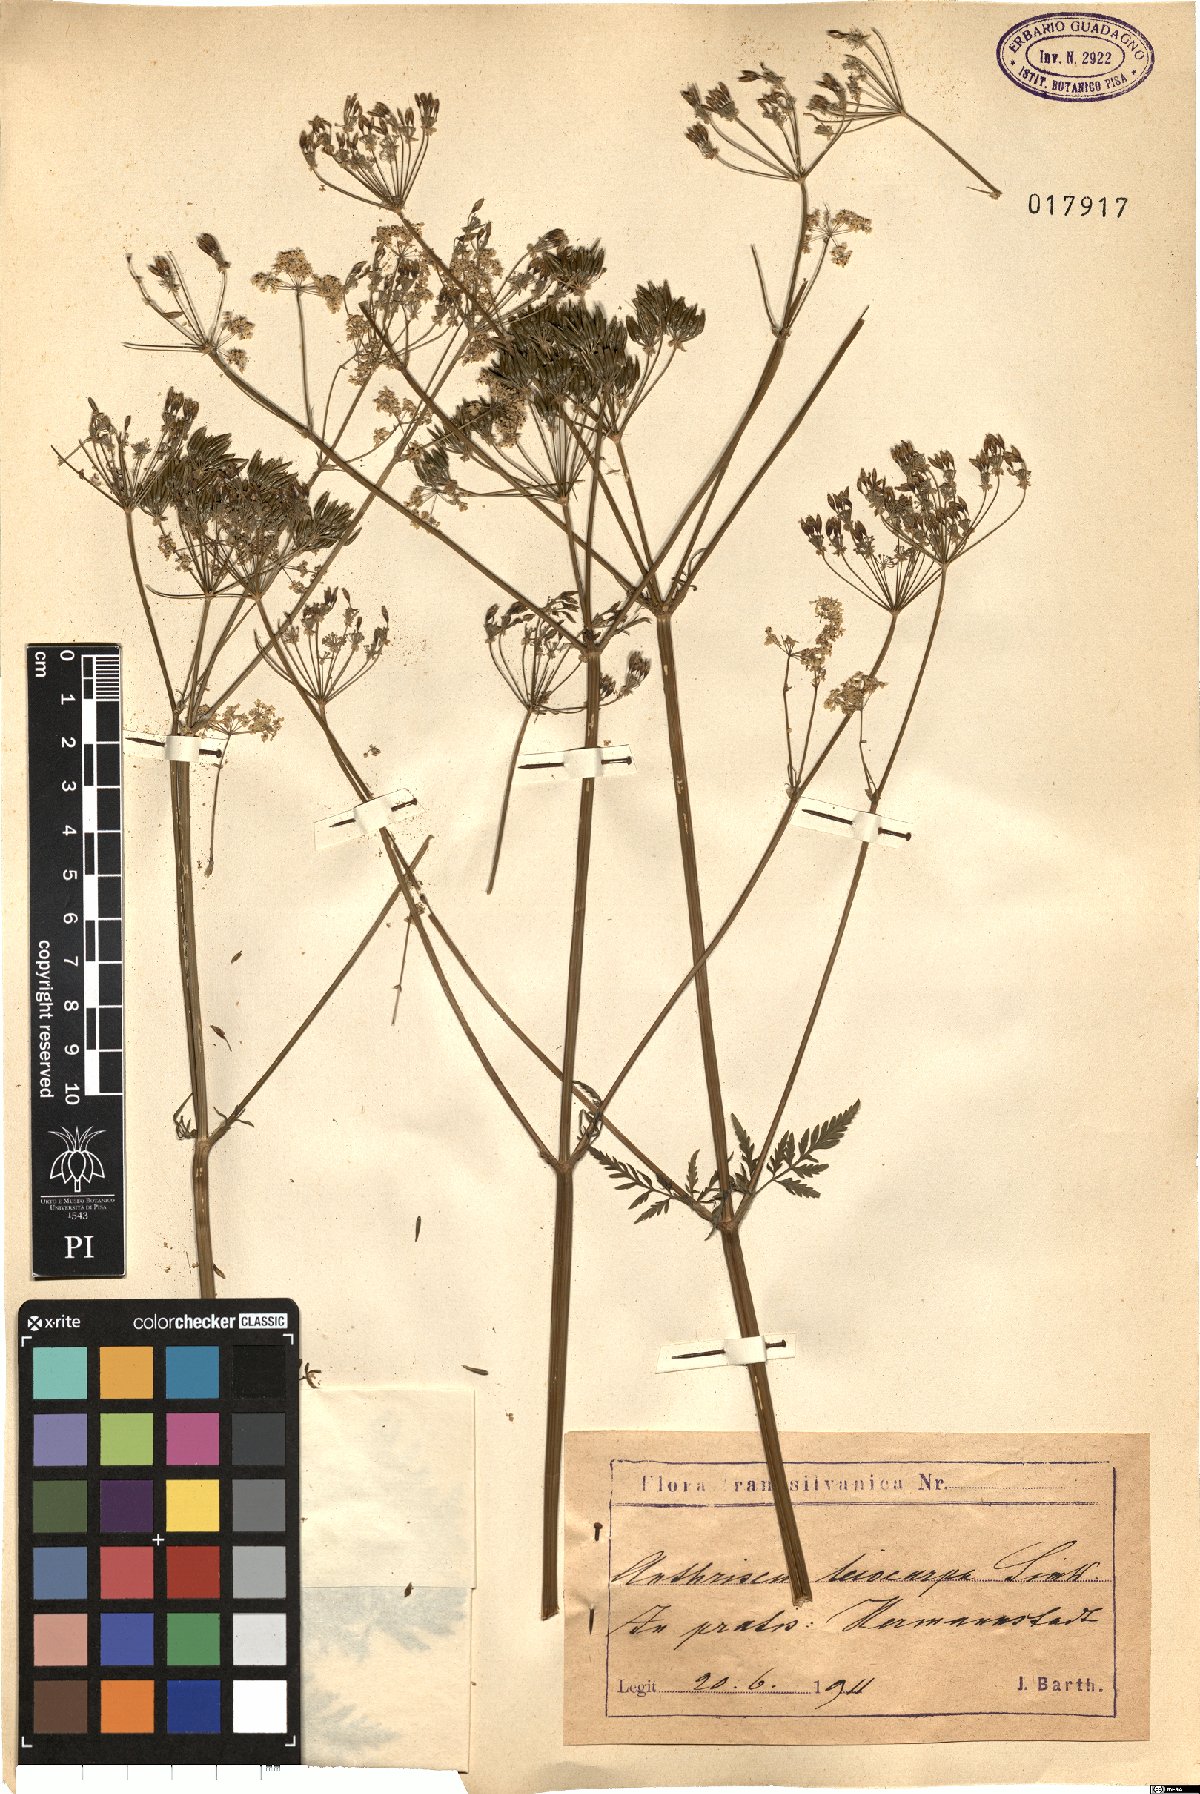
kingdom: Plantae
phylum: Tracheophyta
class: Magnoliopsida
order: Apiales
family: Apiaceae
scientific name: Apiaceae
